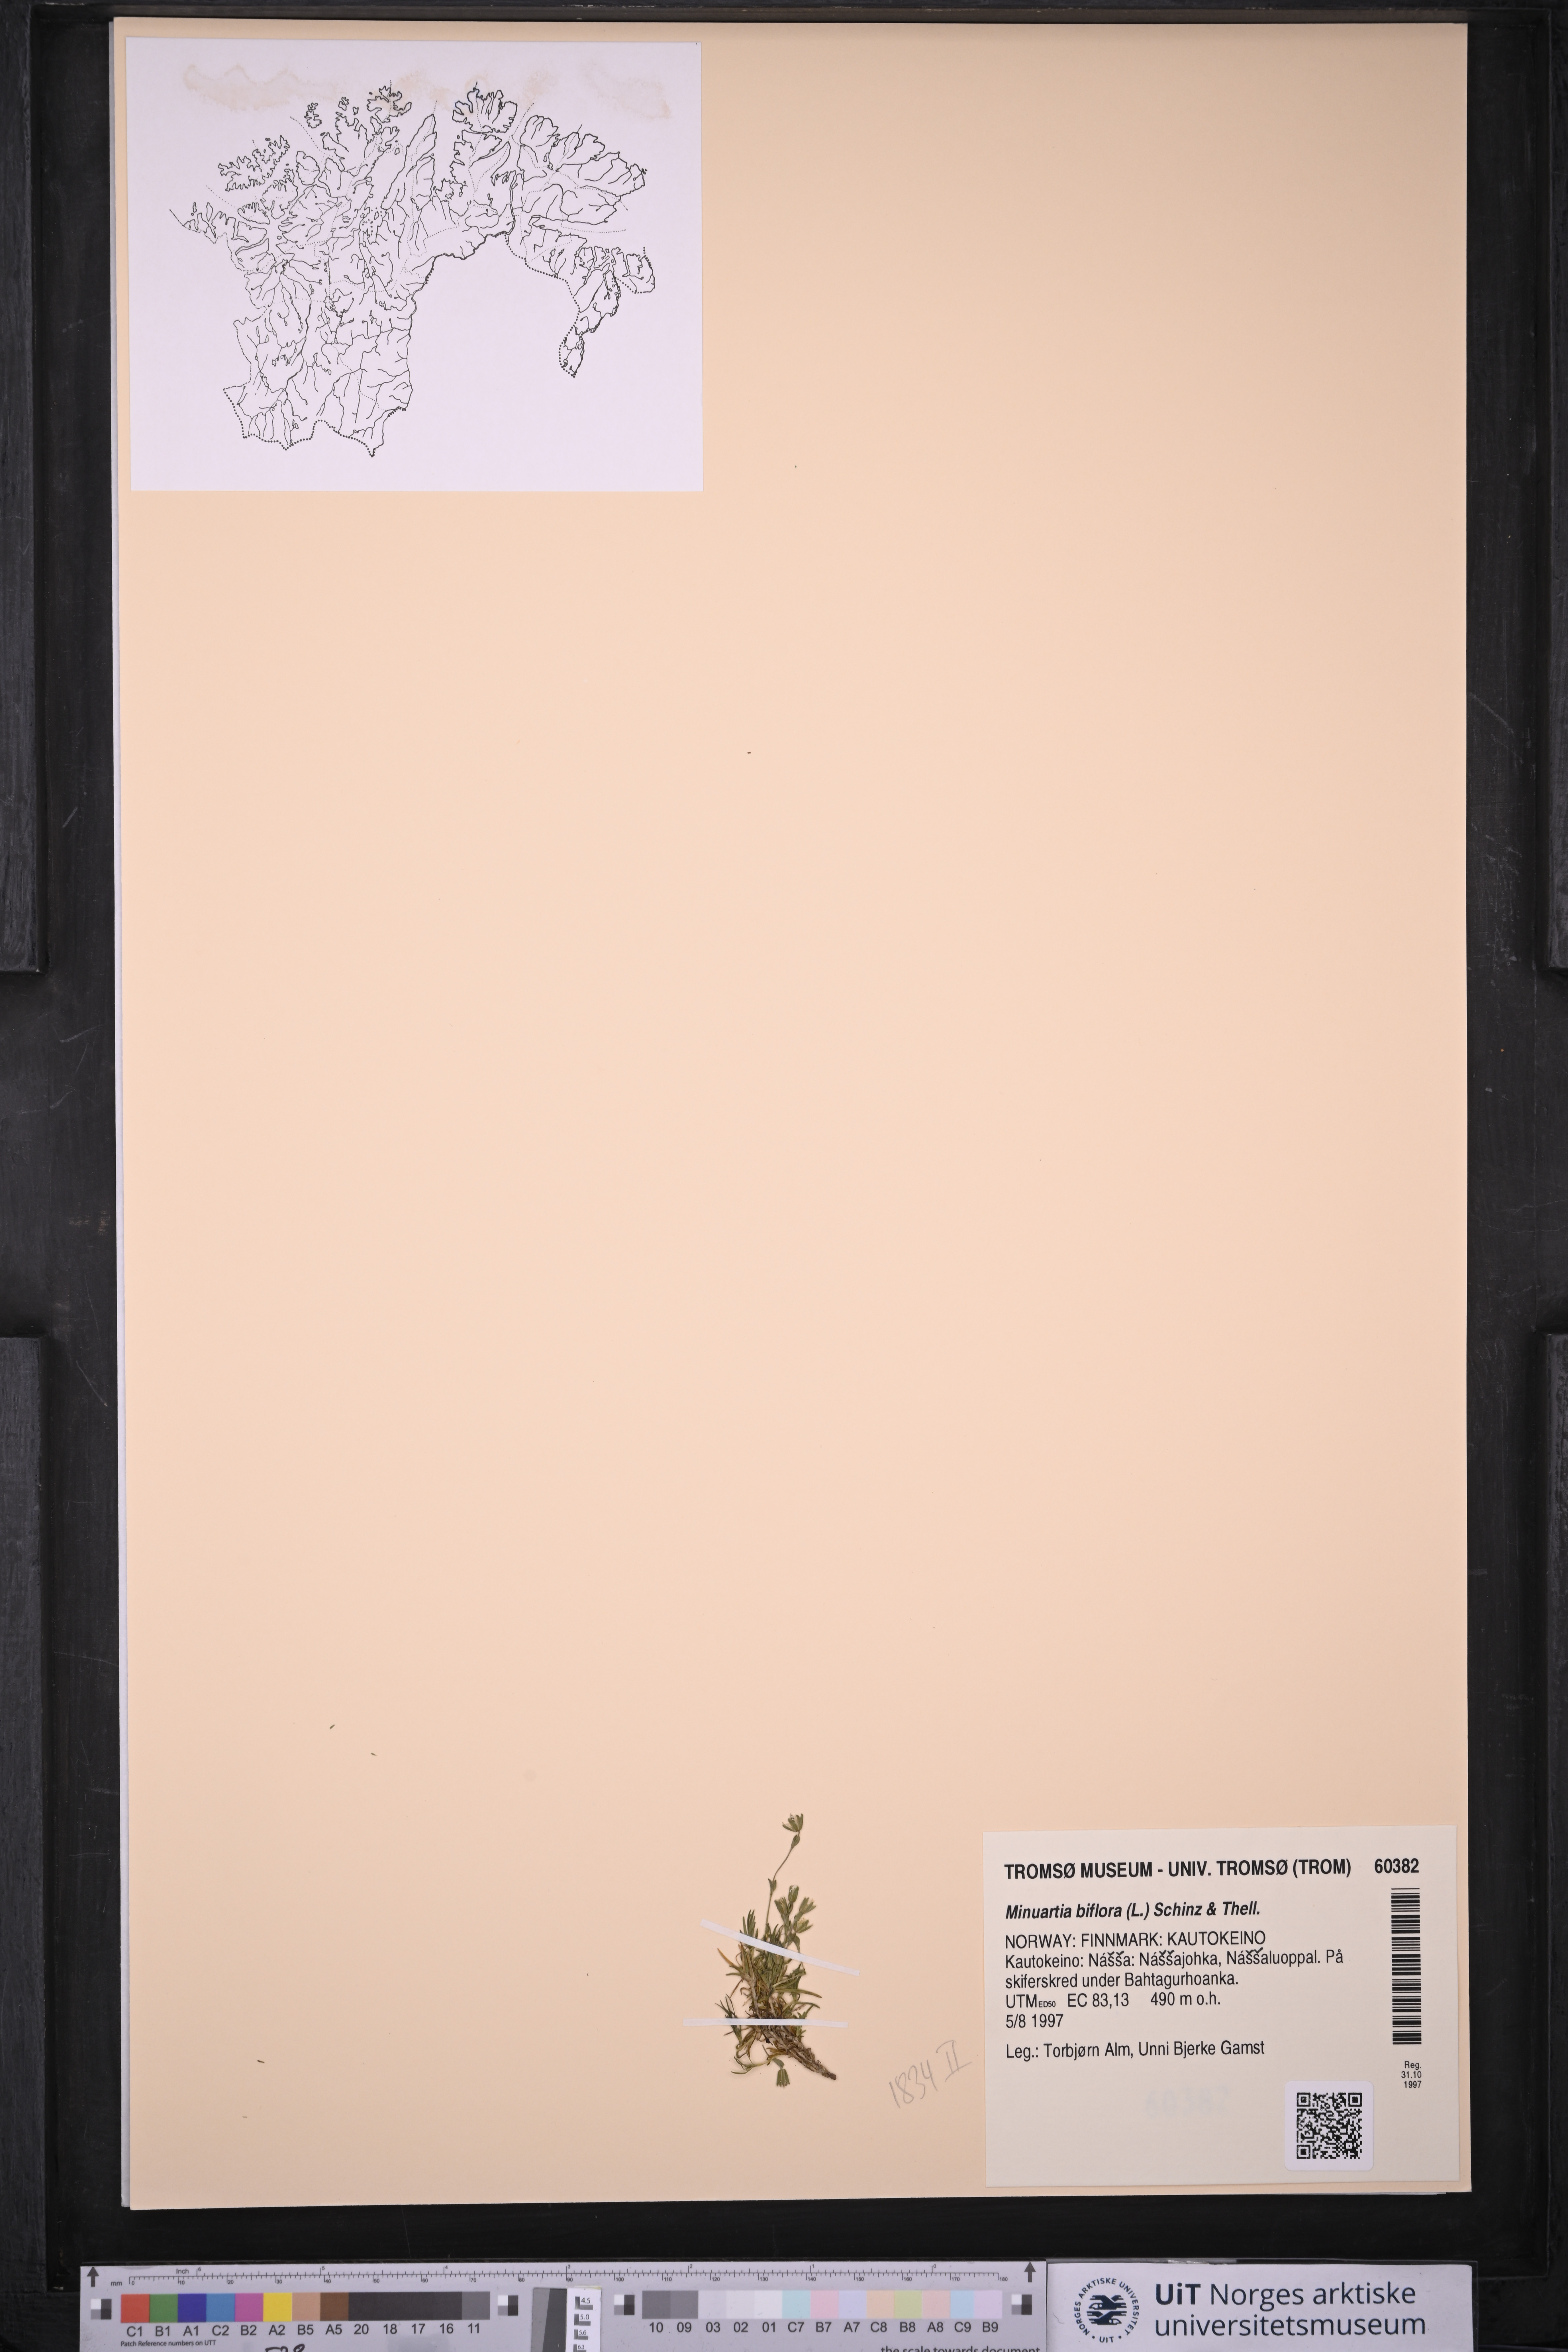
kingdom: Plantae
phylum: Tracheophyta
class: Magnoliopsida
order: Caryophyllales
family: Caryophyllaceae
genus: Cherleria
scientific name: Cherleria biflora
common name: Mountain sandwort
